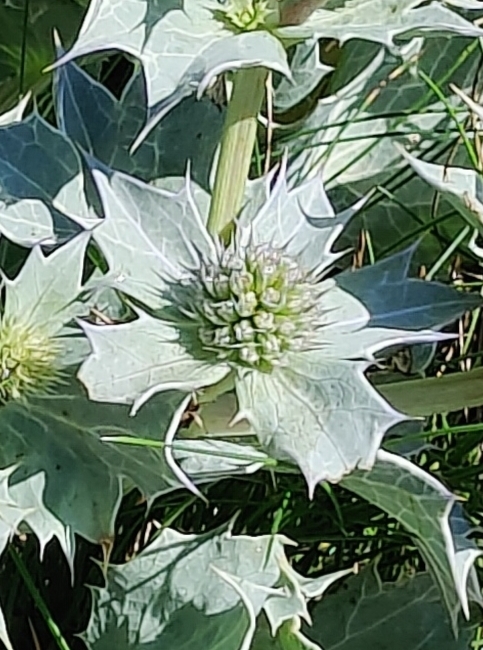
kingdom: Plantae
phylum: Tracheophyta
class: Magnoliopsida
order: Apiales
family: Apiaceae
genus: Eryngium
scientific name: Eryngium maritimum
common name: Strand-mandstro
